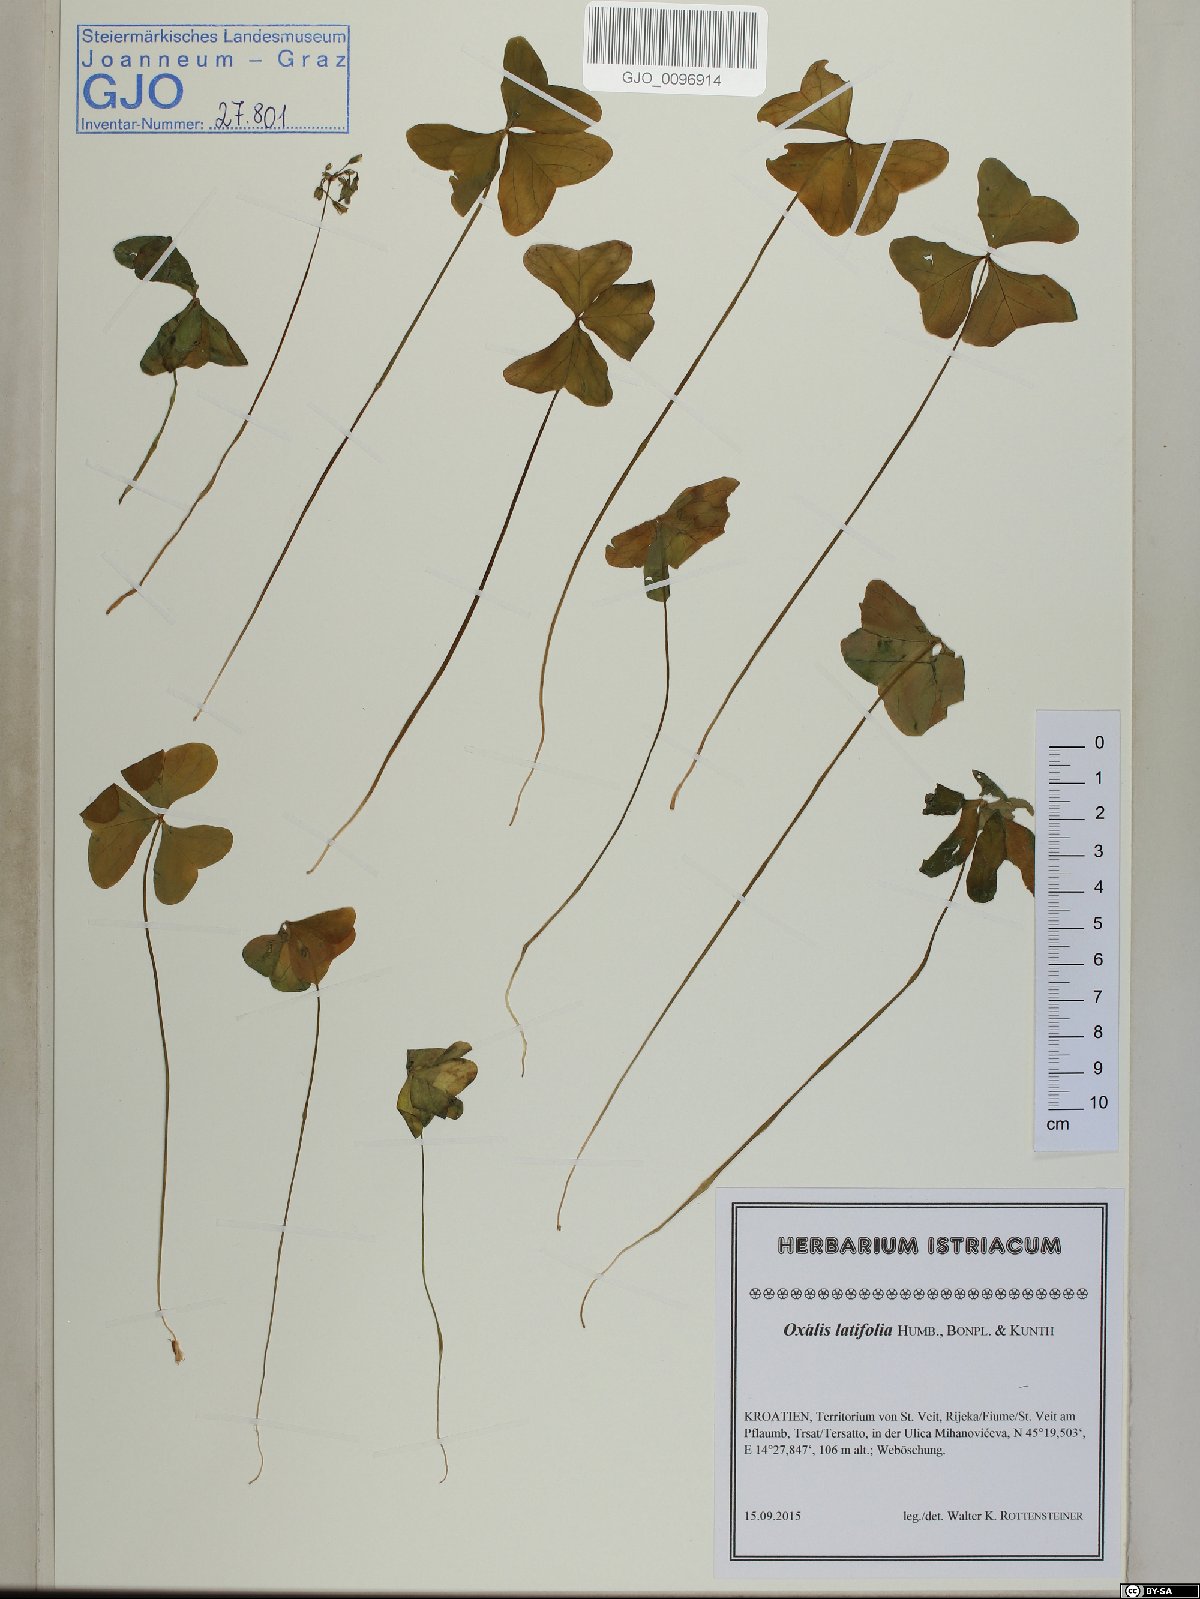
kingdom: Plantae
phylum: Tracheophyta
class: Magnoliopsida
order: Oxalidales
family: Oxalidaceae
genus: Oxalis
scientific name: Oxalis latifolia
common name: Garden pink-sorrel
